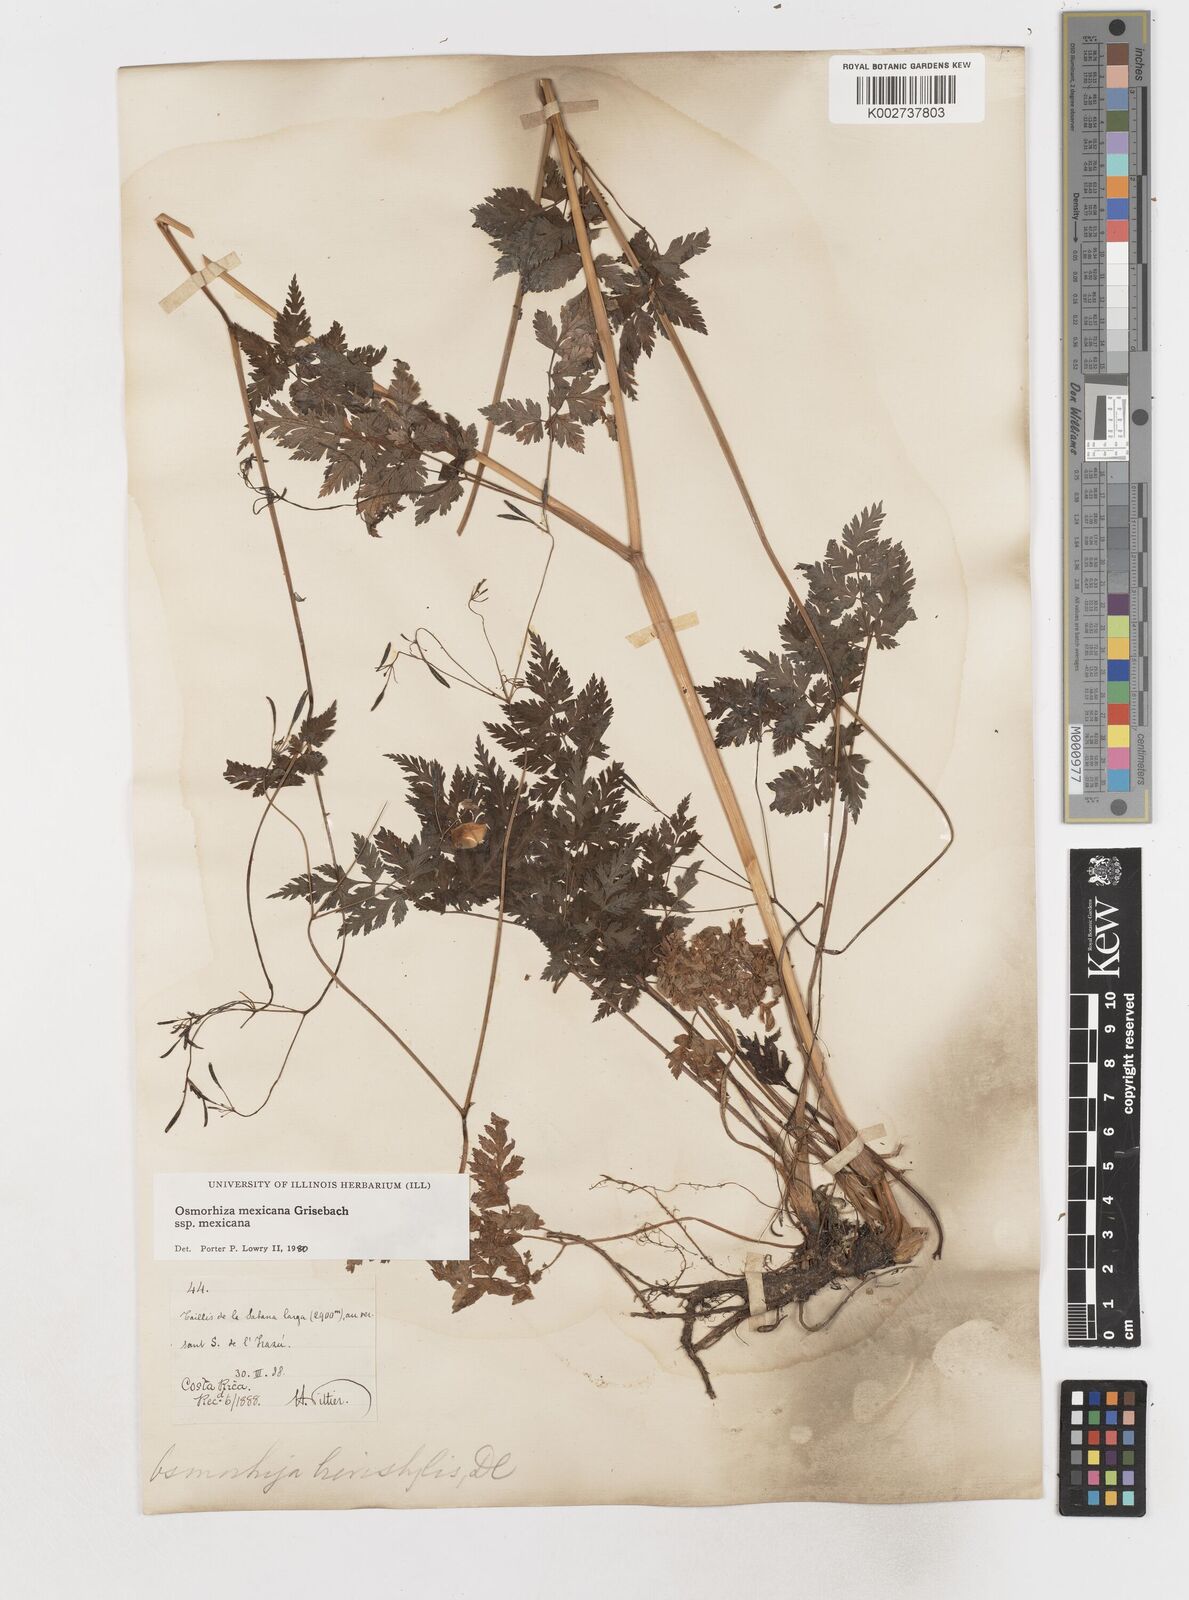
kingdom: Plantae
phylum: Tracheophyta
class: Magnoliopsida
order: Apiales
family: Apiaceae
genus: Osmorhiza
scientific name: Osmorhiza mexicana
